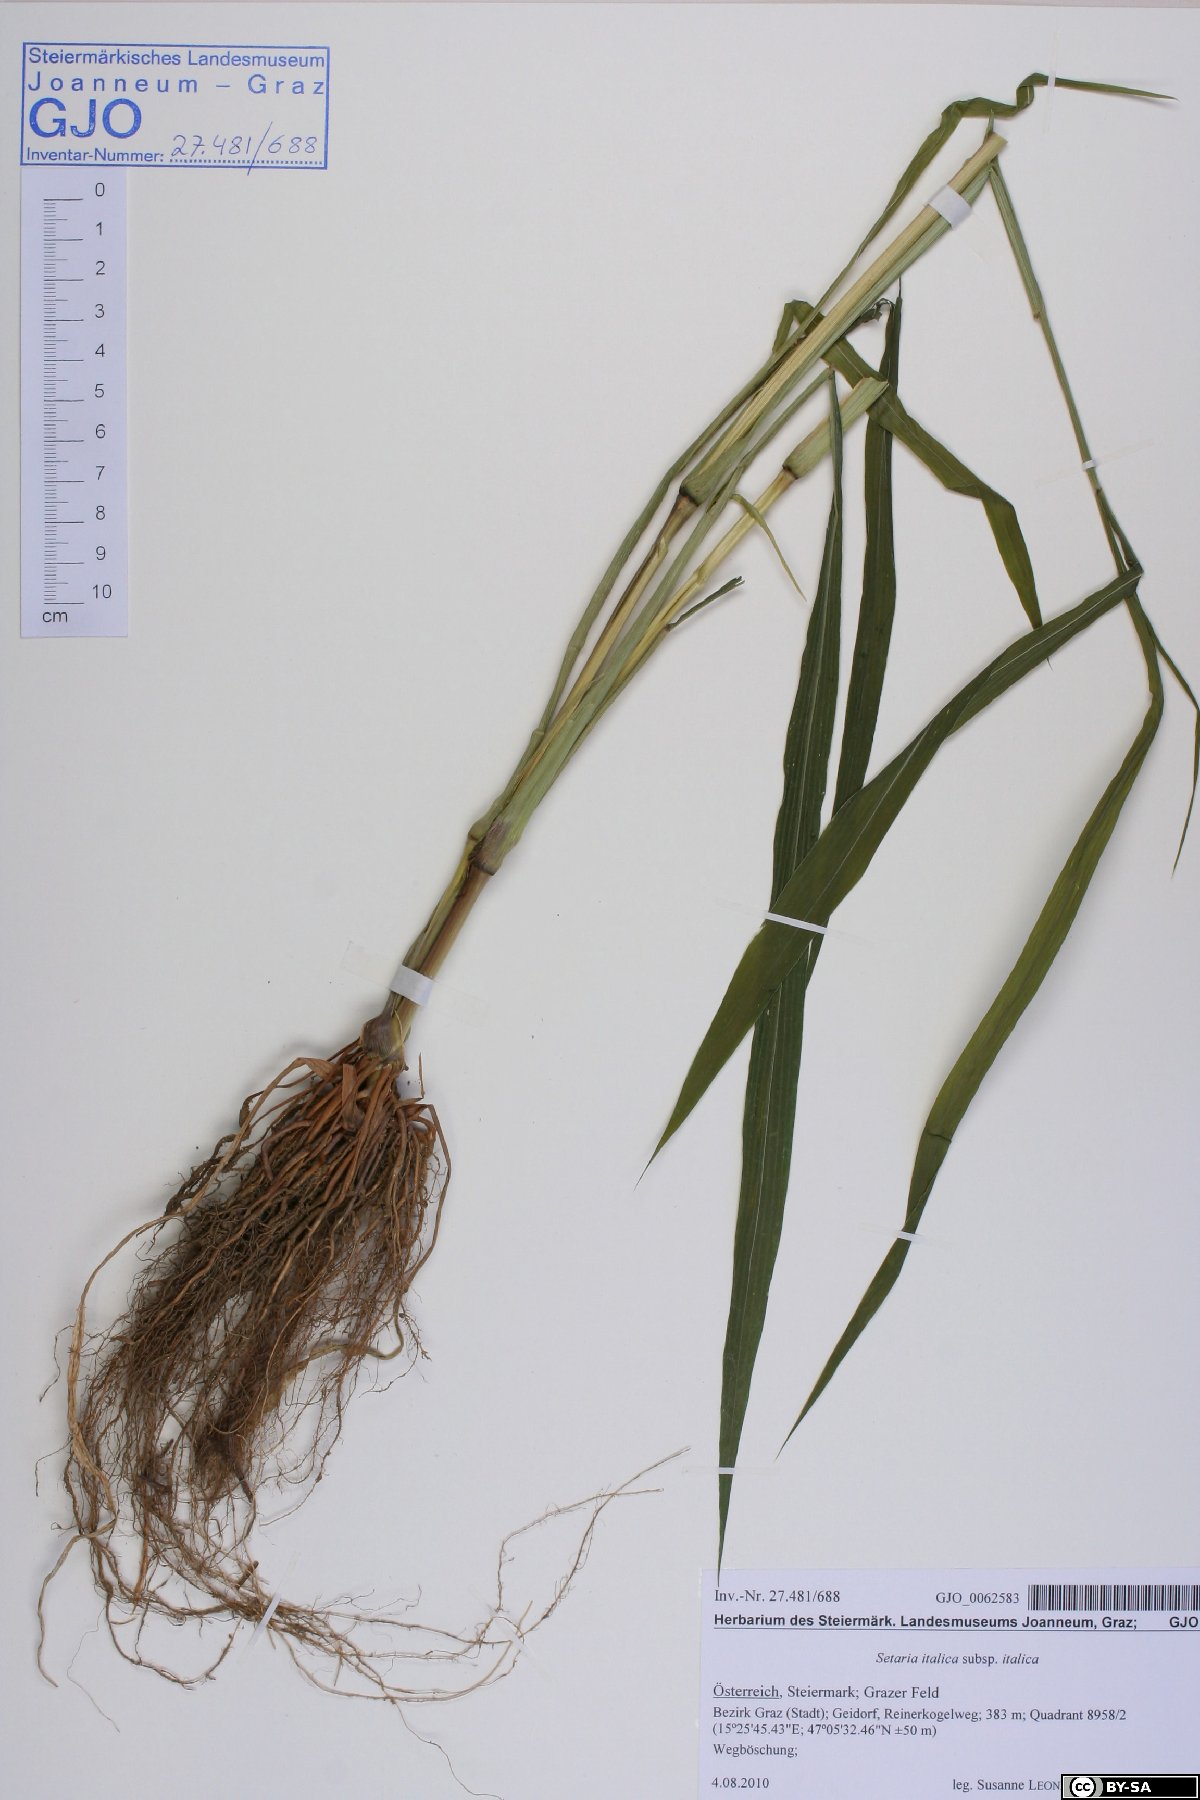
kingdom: Plantae
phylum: Tracheophyta
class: Liliopsida
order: Poales
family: Poaceae
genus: Setaria
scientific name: Setaria italica
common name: Foxtail bristle-grass
